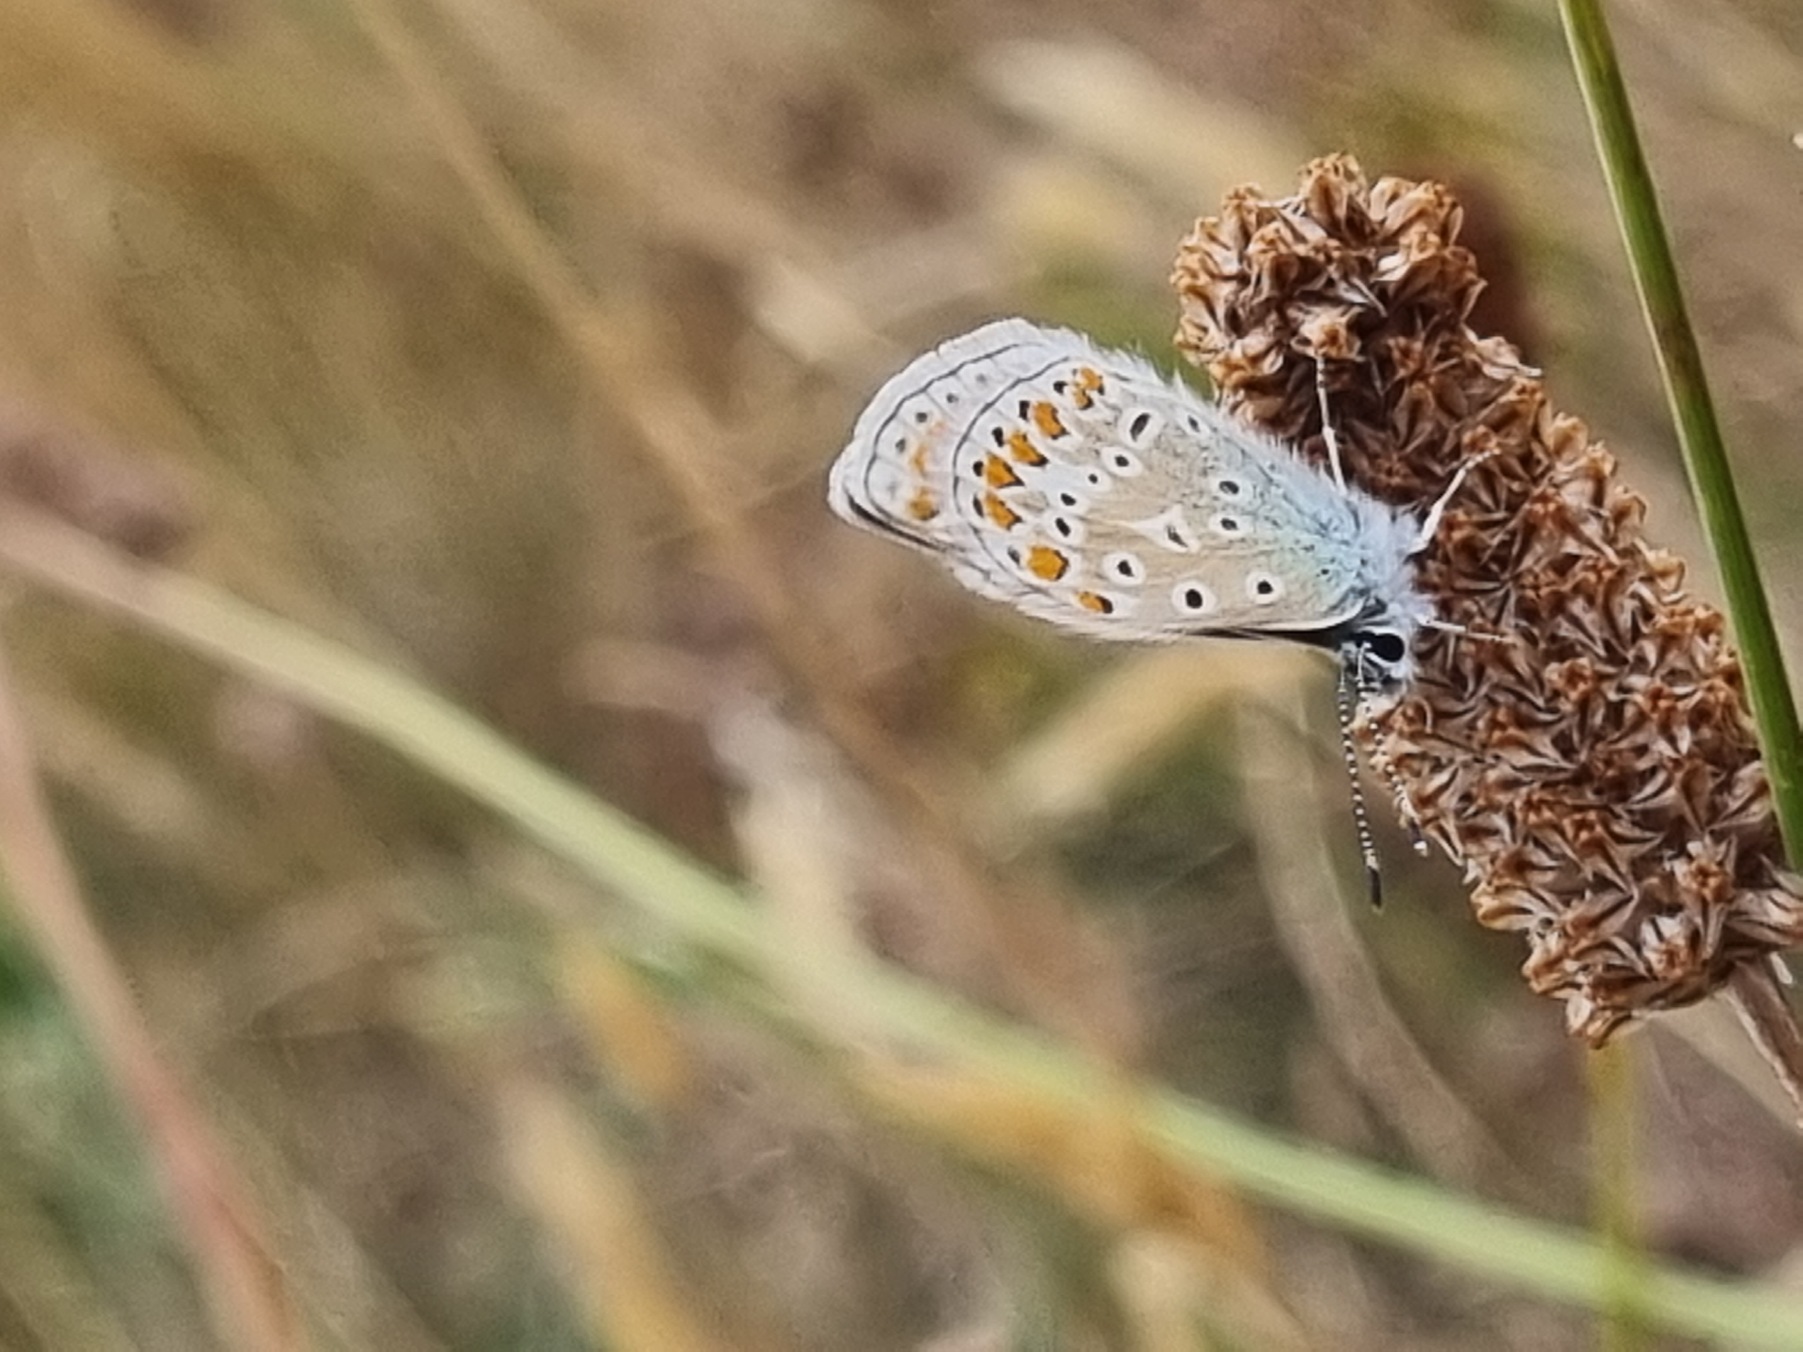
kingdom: Animalia
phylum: Arthropoda
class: Insecta
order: Lepidoptera
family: Lycaenidae
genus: Polyommatus
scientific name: Polyommatus icarus
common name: Almindelig blåfugl
